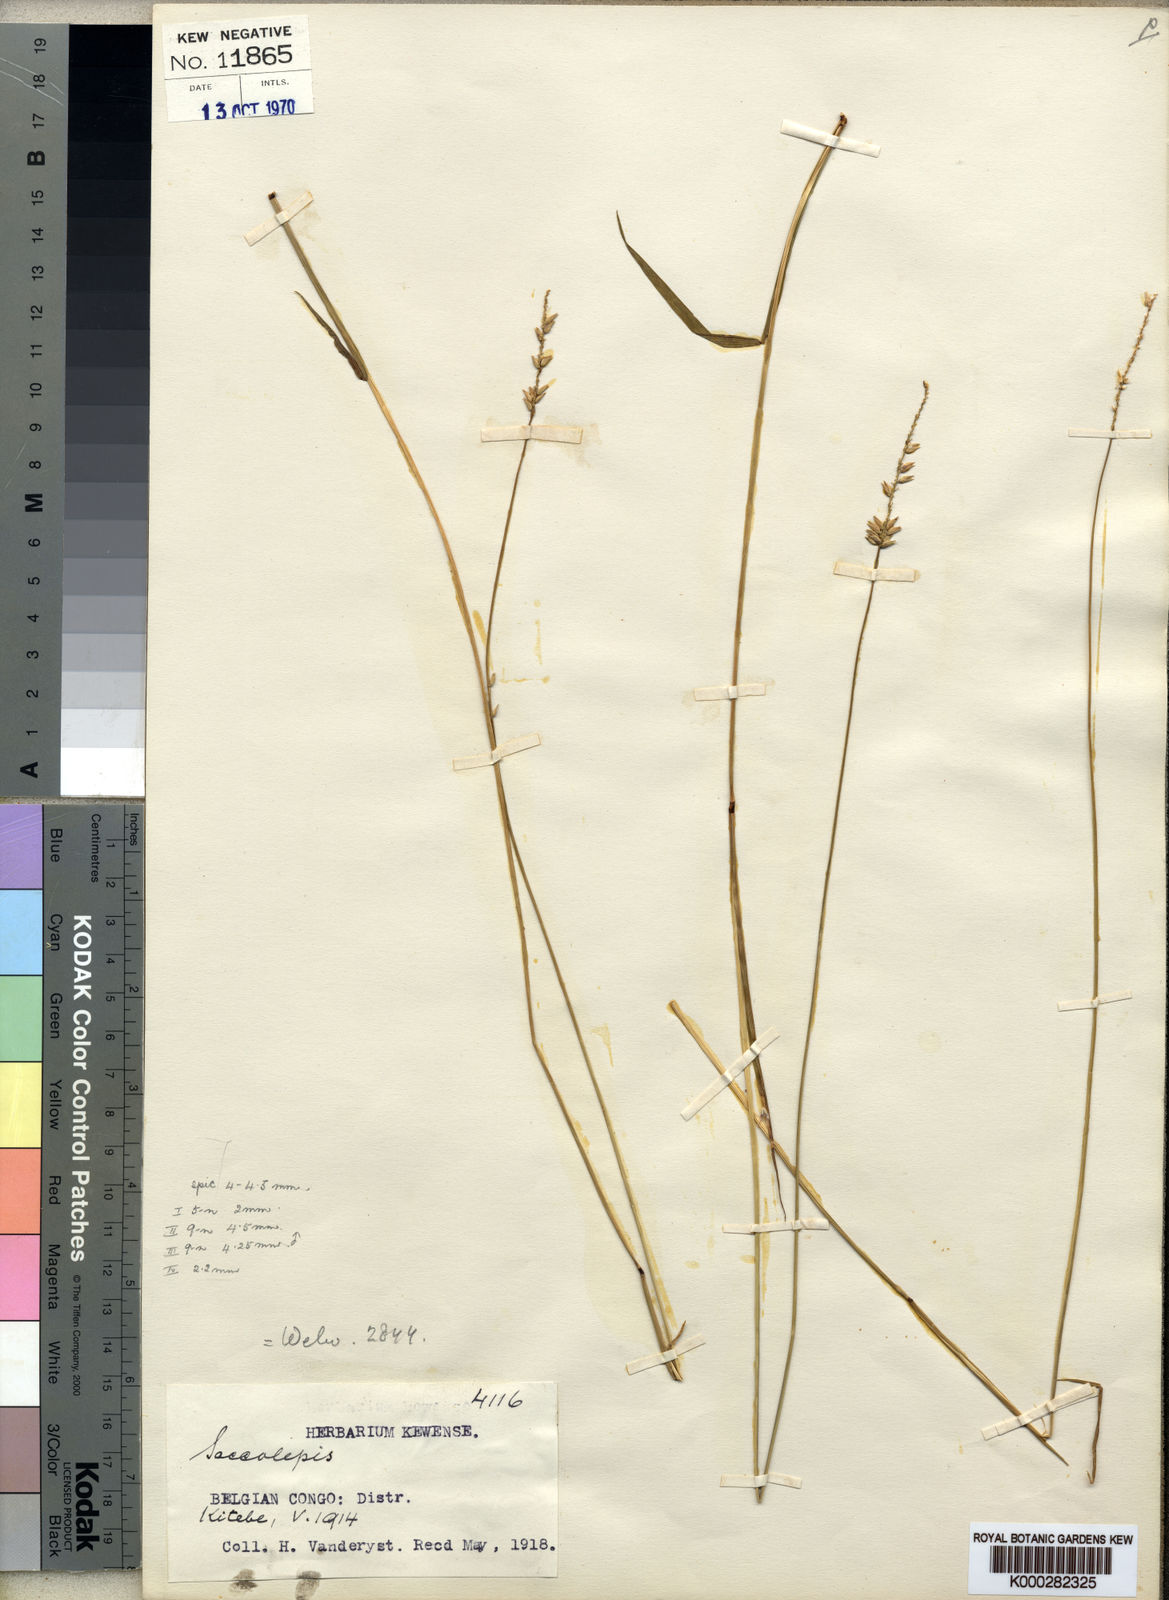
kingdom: Plantae
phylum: Tracheophyta
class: Liliopsida
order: Poales
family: Poaceae
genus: Sacciolepis
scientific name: Sacciolepis leptorrhachis
